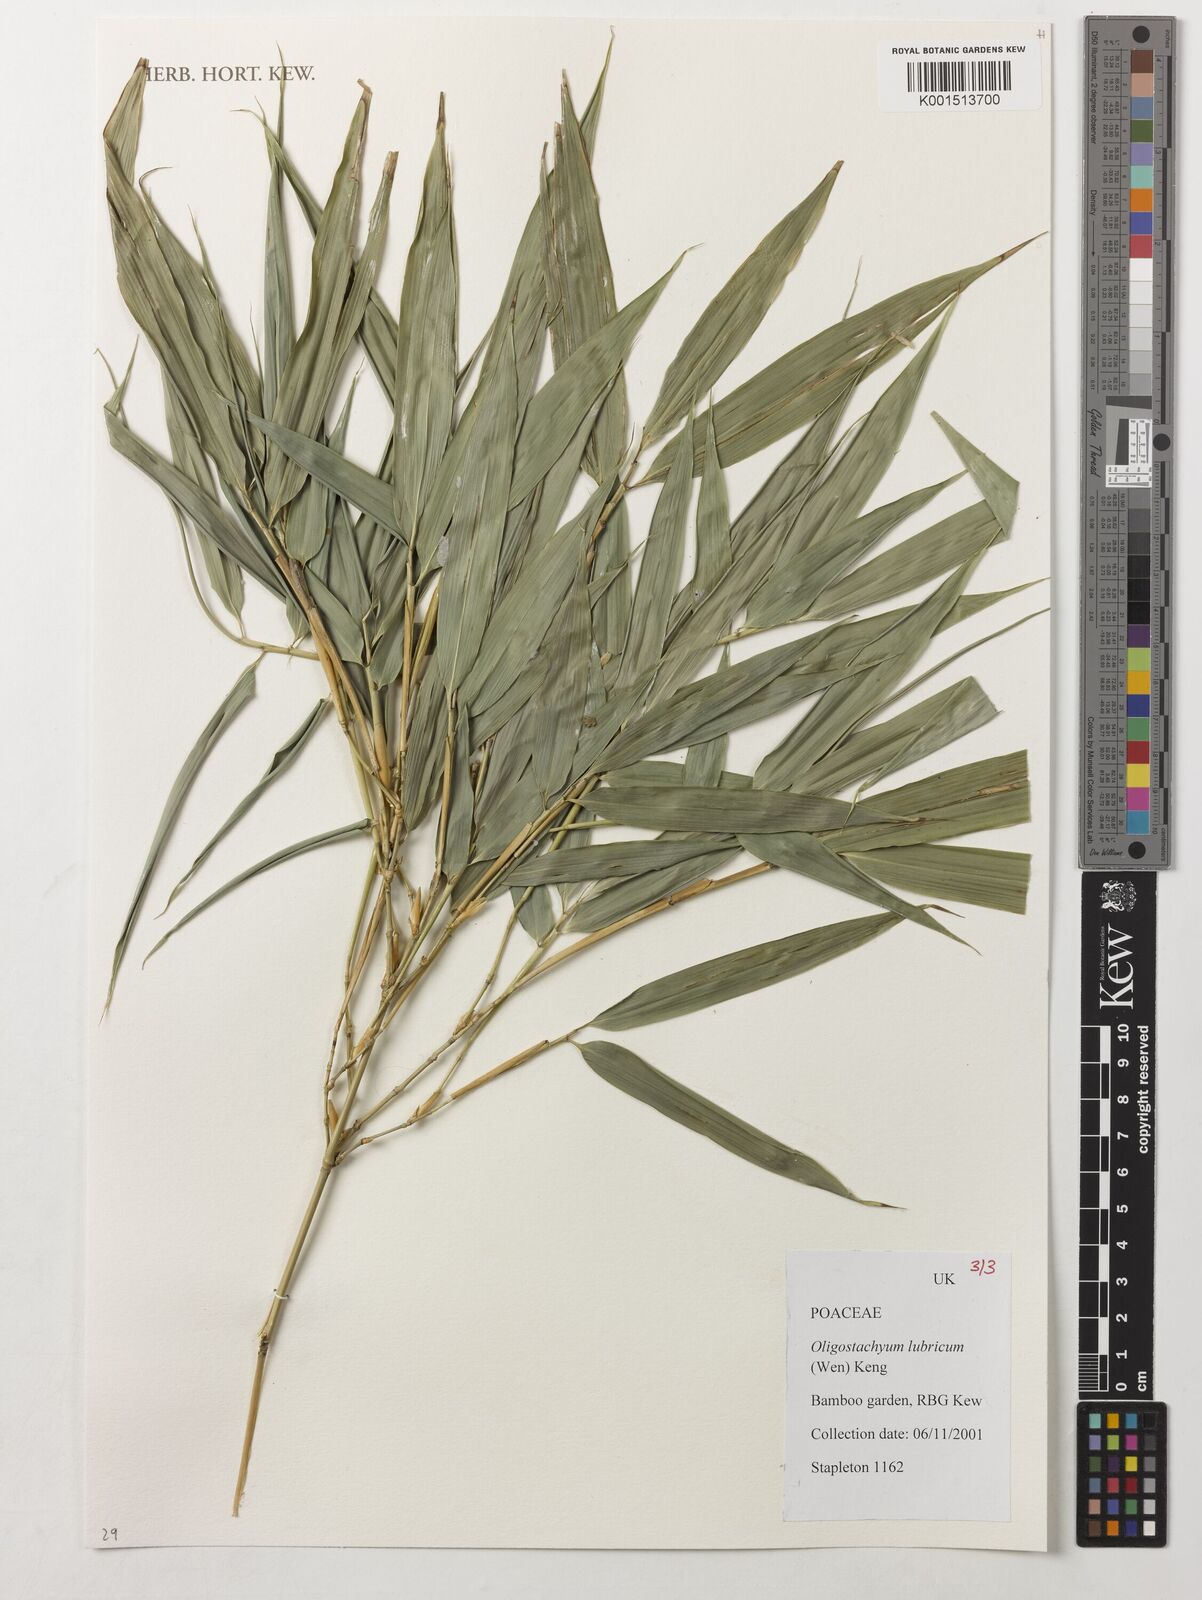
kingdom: Plantae
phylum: Tracheophyta
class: Liliopsida
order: Poales
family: Poaceae
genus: Oligostachyum
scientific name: Oligostachyum lubricum
